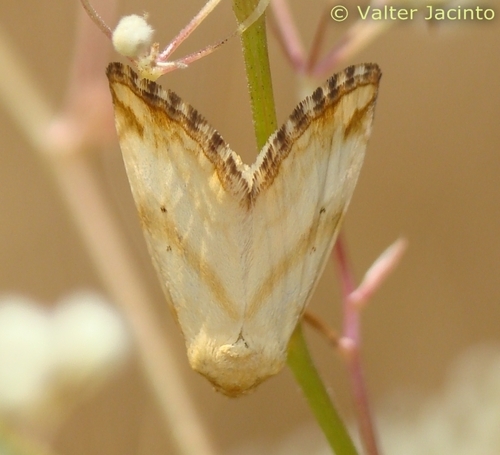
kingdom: Animalia
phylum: Arthropoda
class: Insecta
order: Lepidoptera
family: Noctuidae
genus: Aegle
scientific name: Aegle vespertinalis
